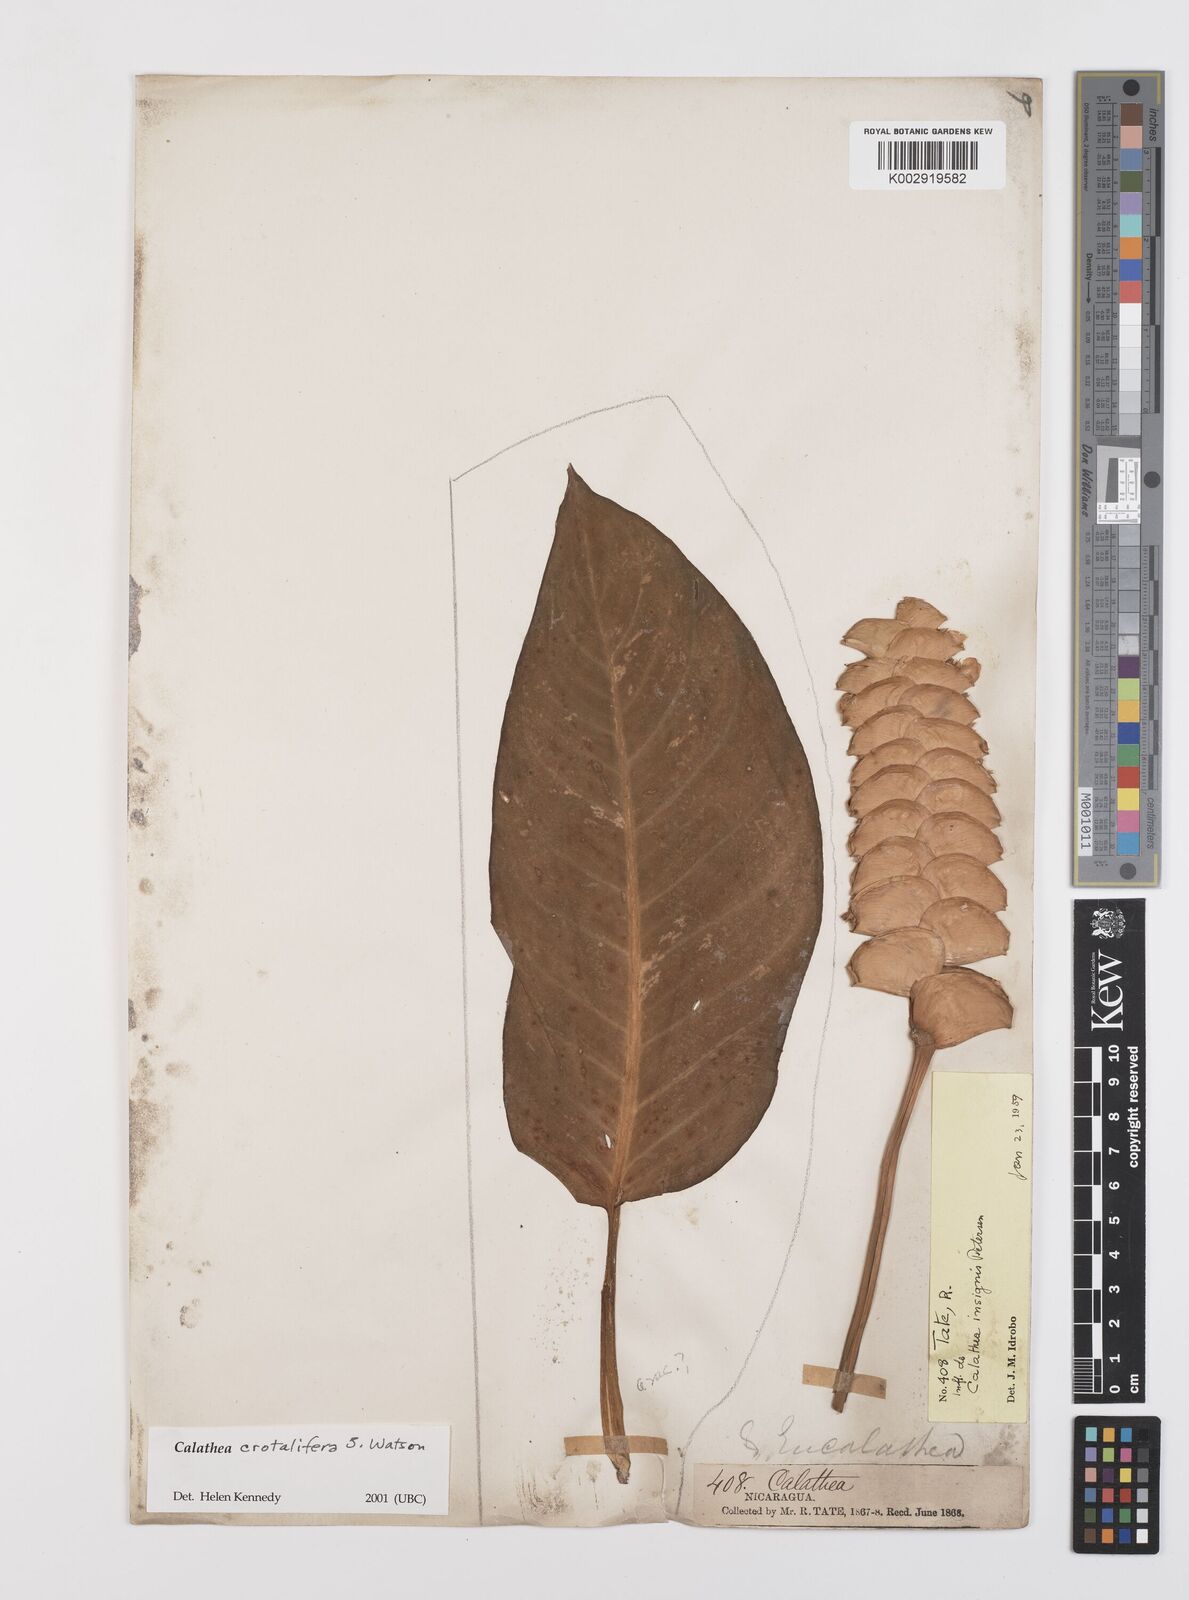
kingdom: Plantae
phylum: Tracheophyta
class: Liliopsida
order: Zingiberales
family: Marantaceae
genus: Calathea
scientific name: Calathea crotalifera
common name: Rattlesnake plant
